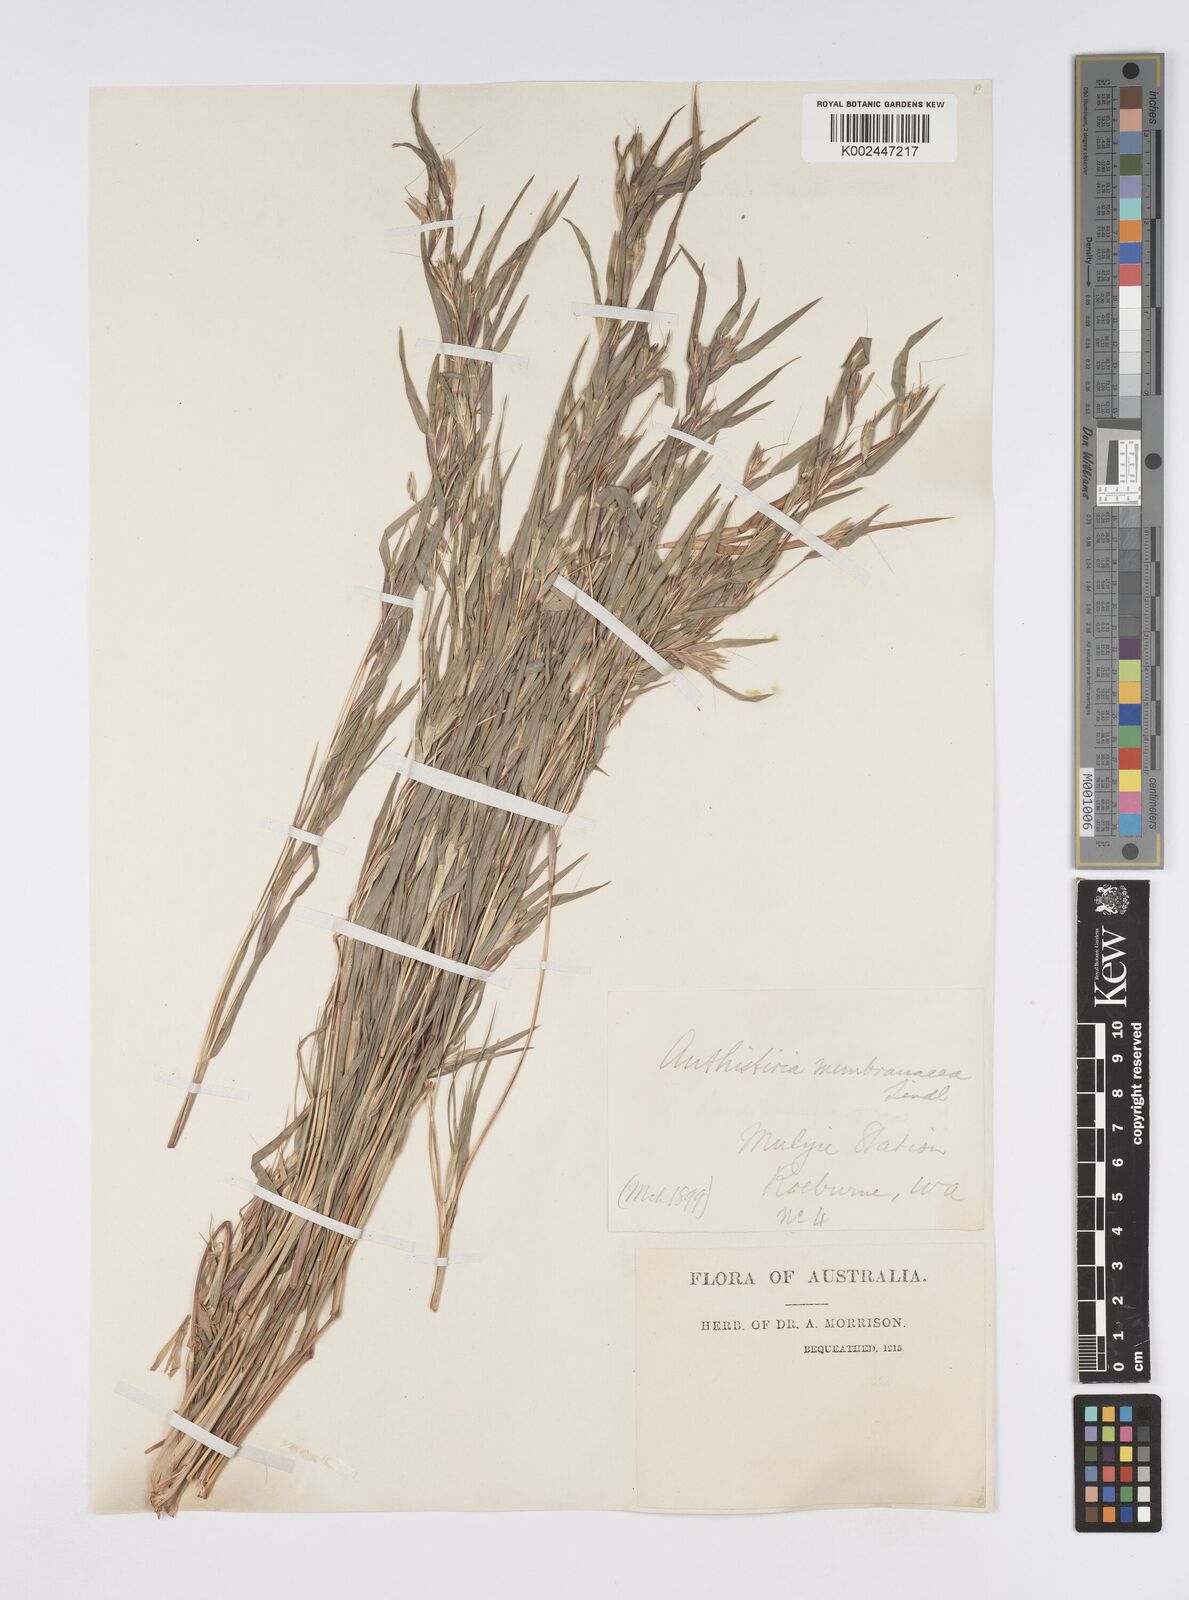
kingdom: Plantae
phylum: Tracheophyta
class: Liliopsida
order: Poales
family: Poaceae
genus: Iseilema
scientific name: Iseilema macratherum
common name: Bull flinders grass
